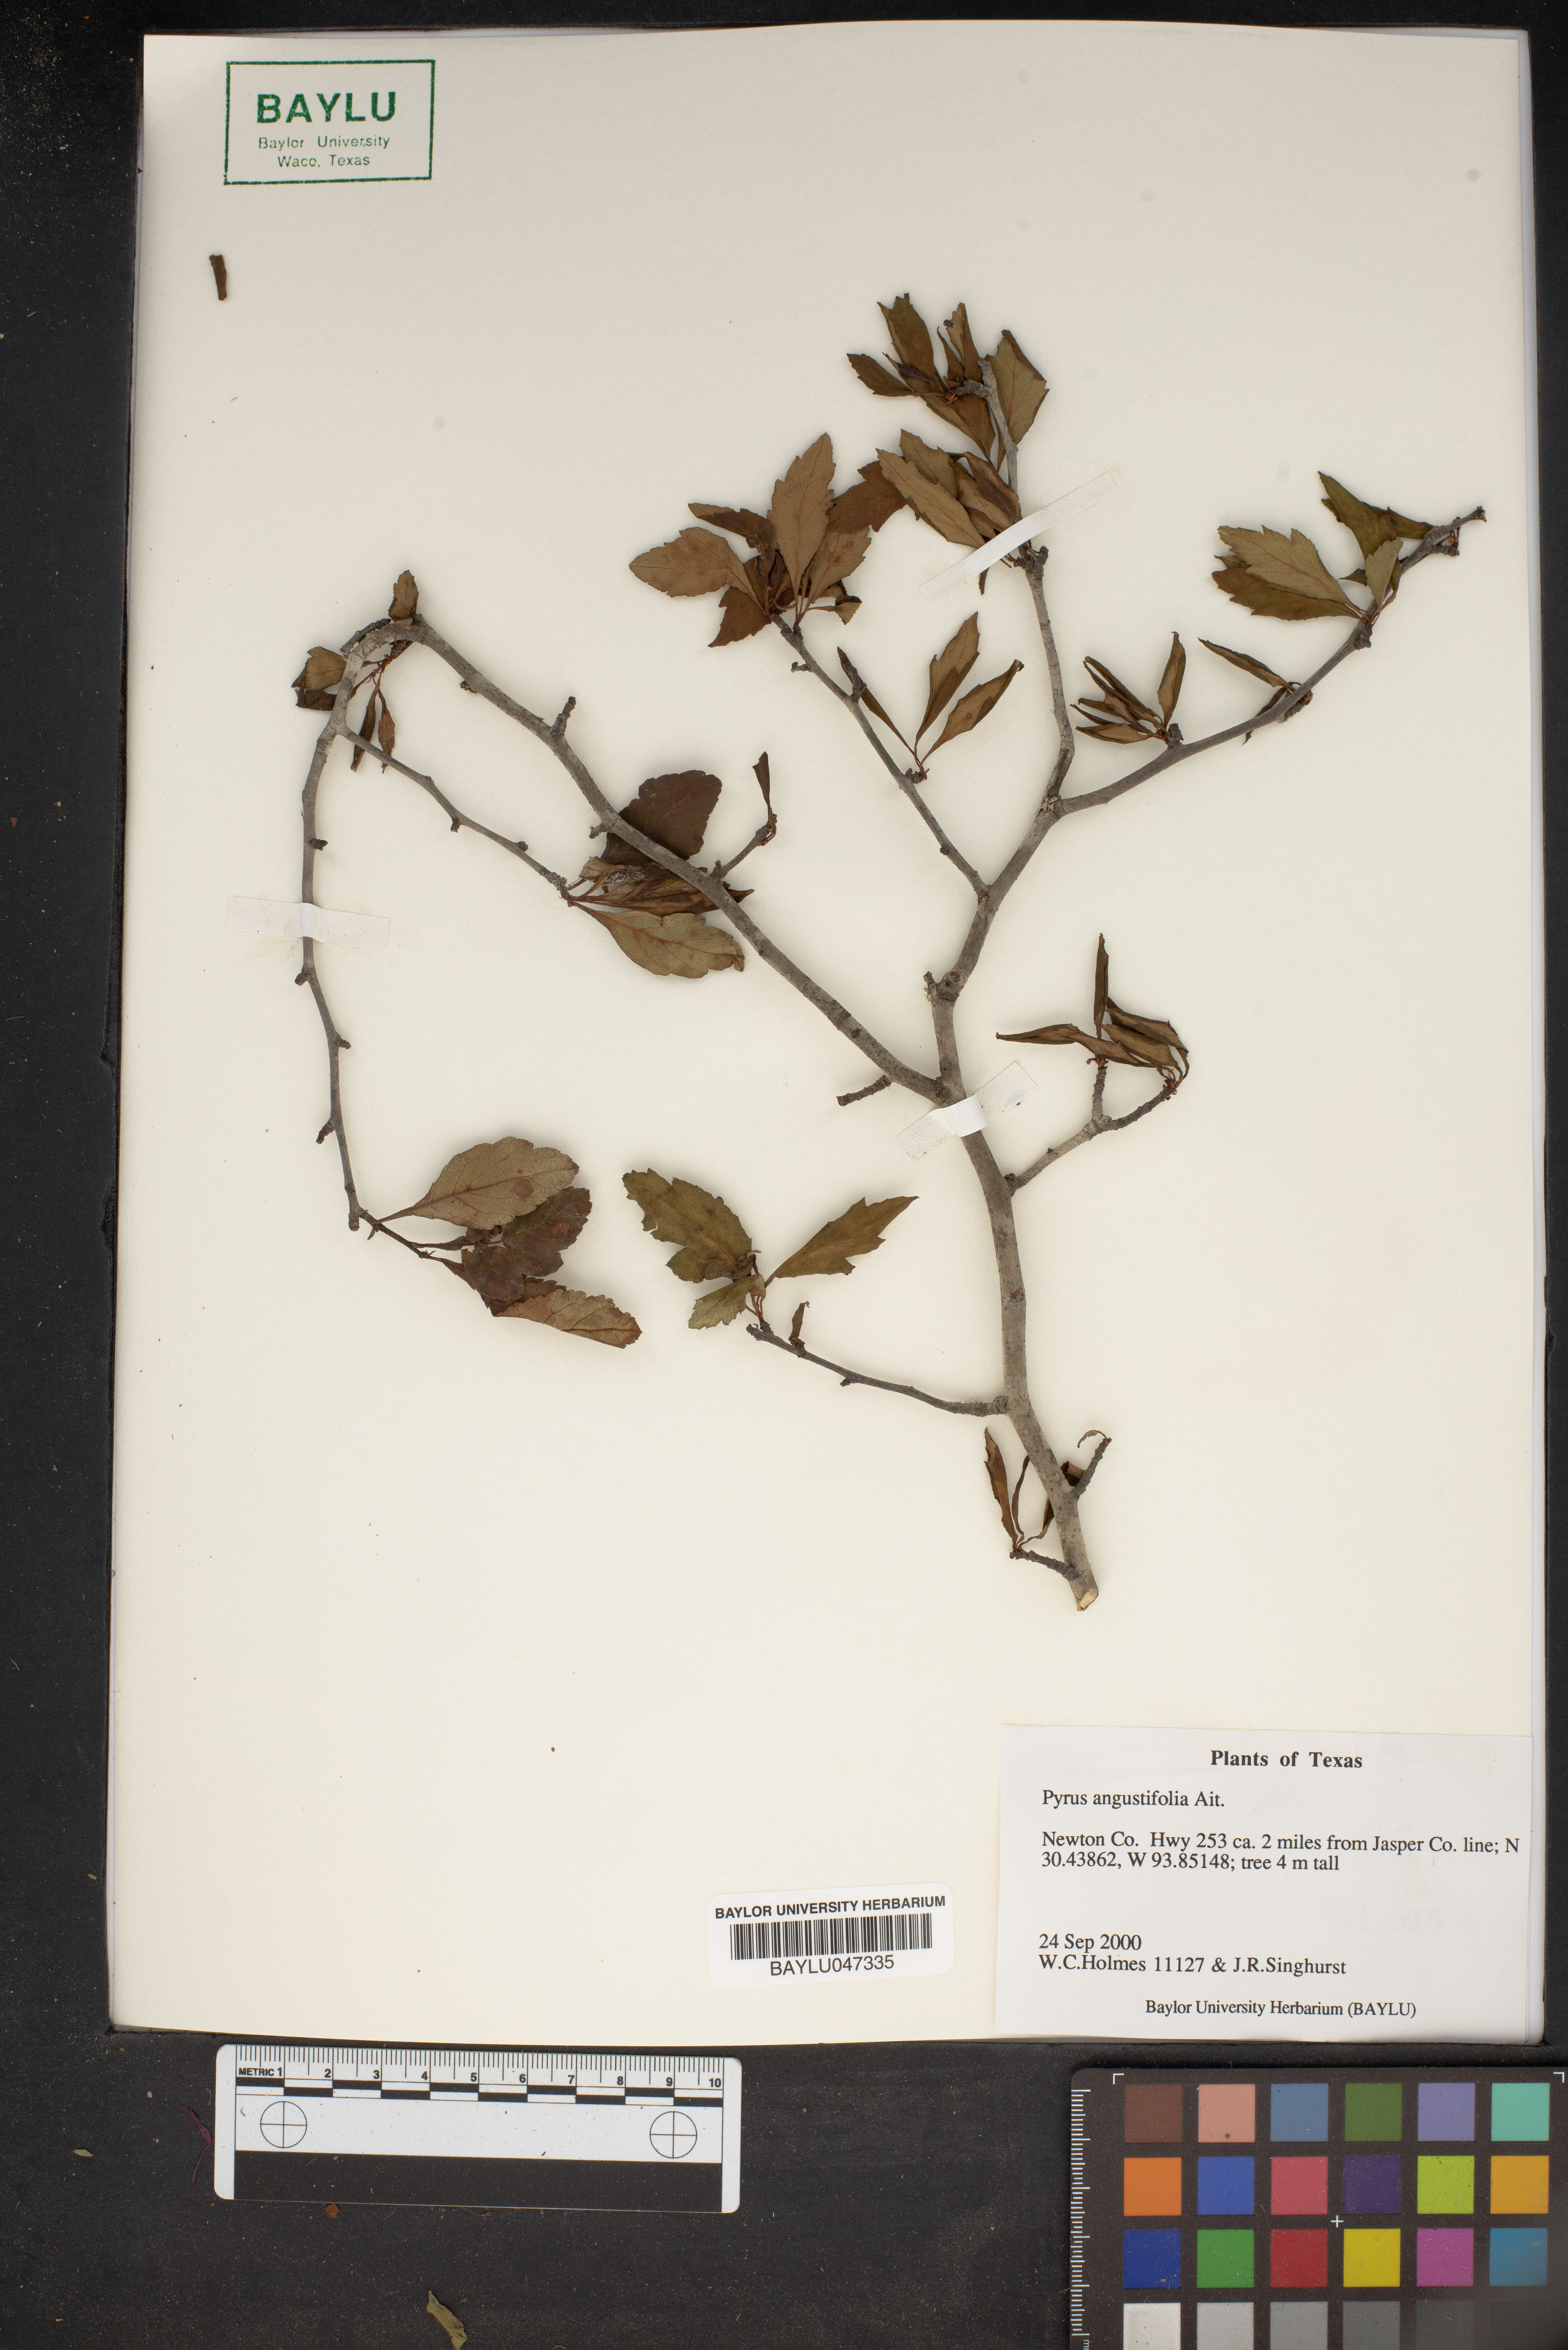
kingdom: Plantae
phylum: Tracheophyta
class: Magnoliopsida
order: Rosales
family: Rosaceae
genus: Malus
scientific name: Malus angustifolia
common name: Southern crab apple
